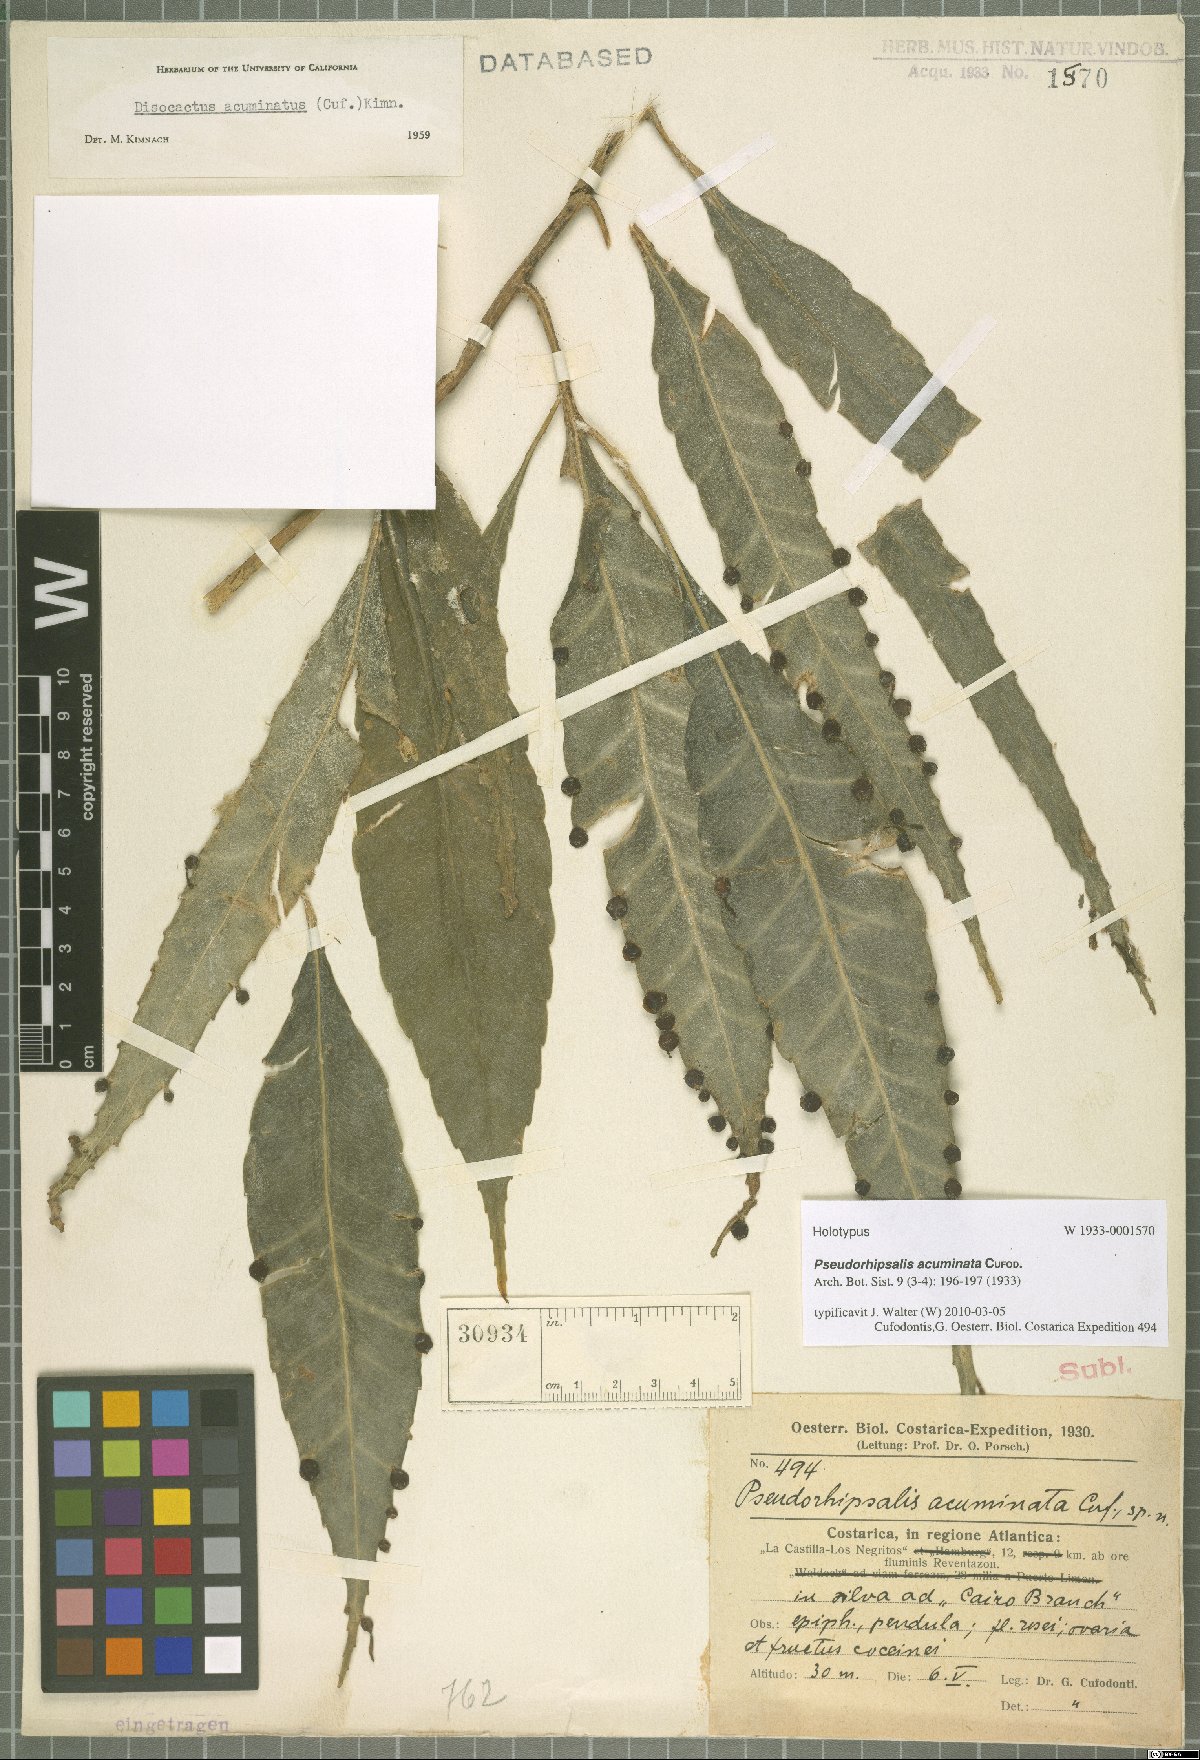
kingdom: Plantae
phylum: Tracheophyta
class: Magnoliopsida
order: Caryophyllales
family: Cactaceae
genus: Pseudorhipsalis
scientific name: Pseudorhipsalis acuminata
